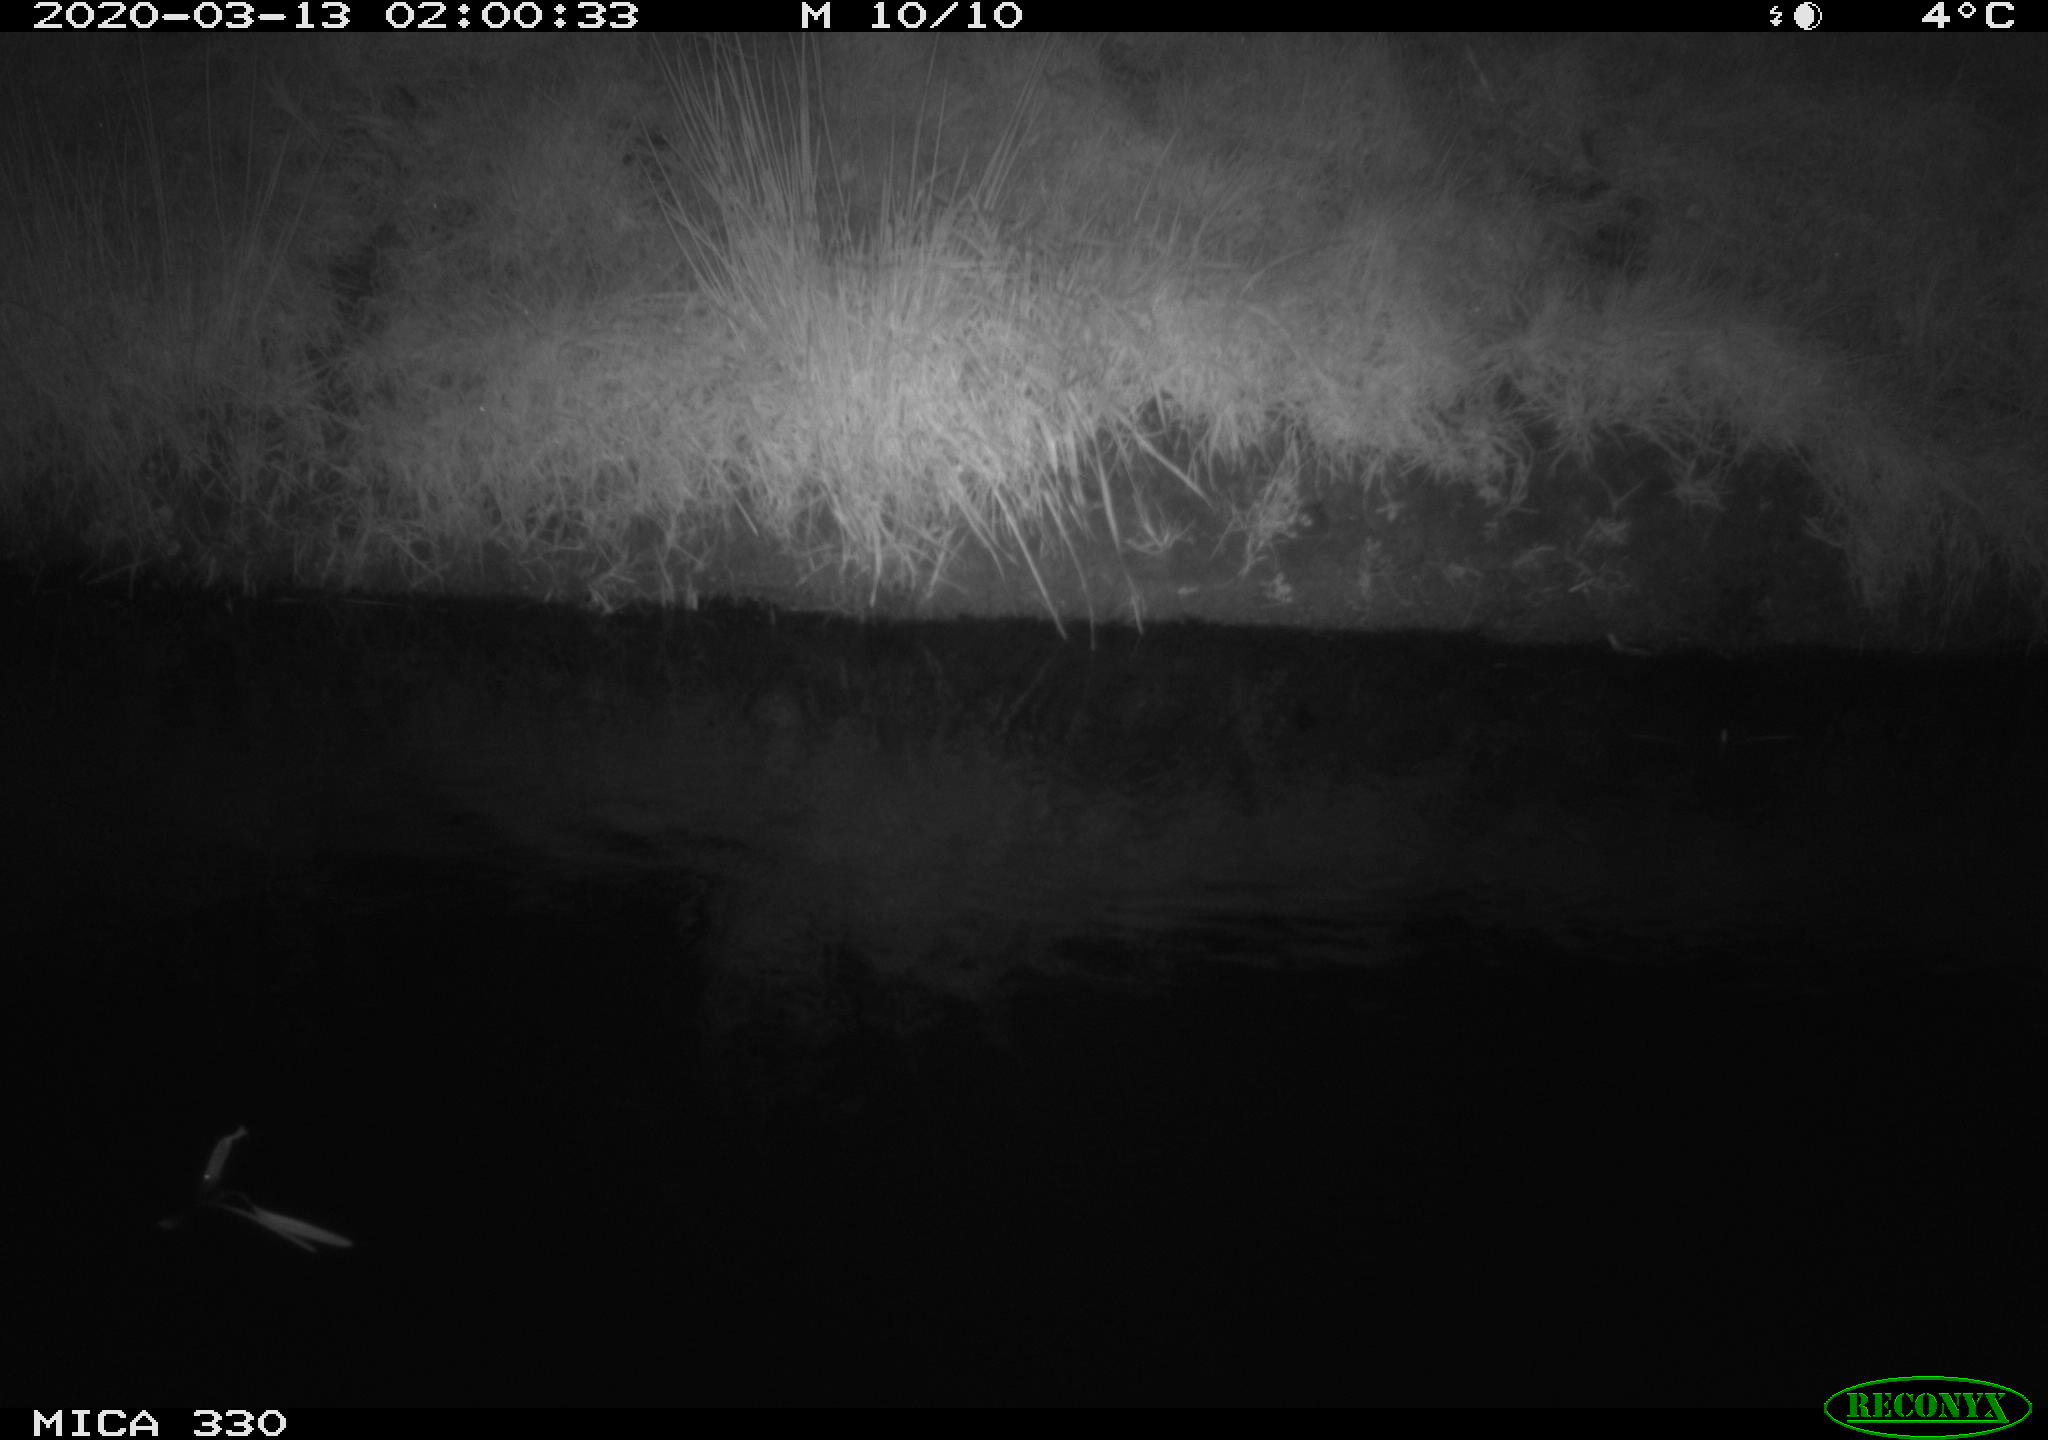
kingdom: Animalia
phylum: Chordata
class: Aves
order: Anseriformes
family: Anatidae
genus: Anas
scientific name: Anas platyrhynchos
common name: Mallard
